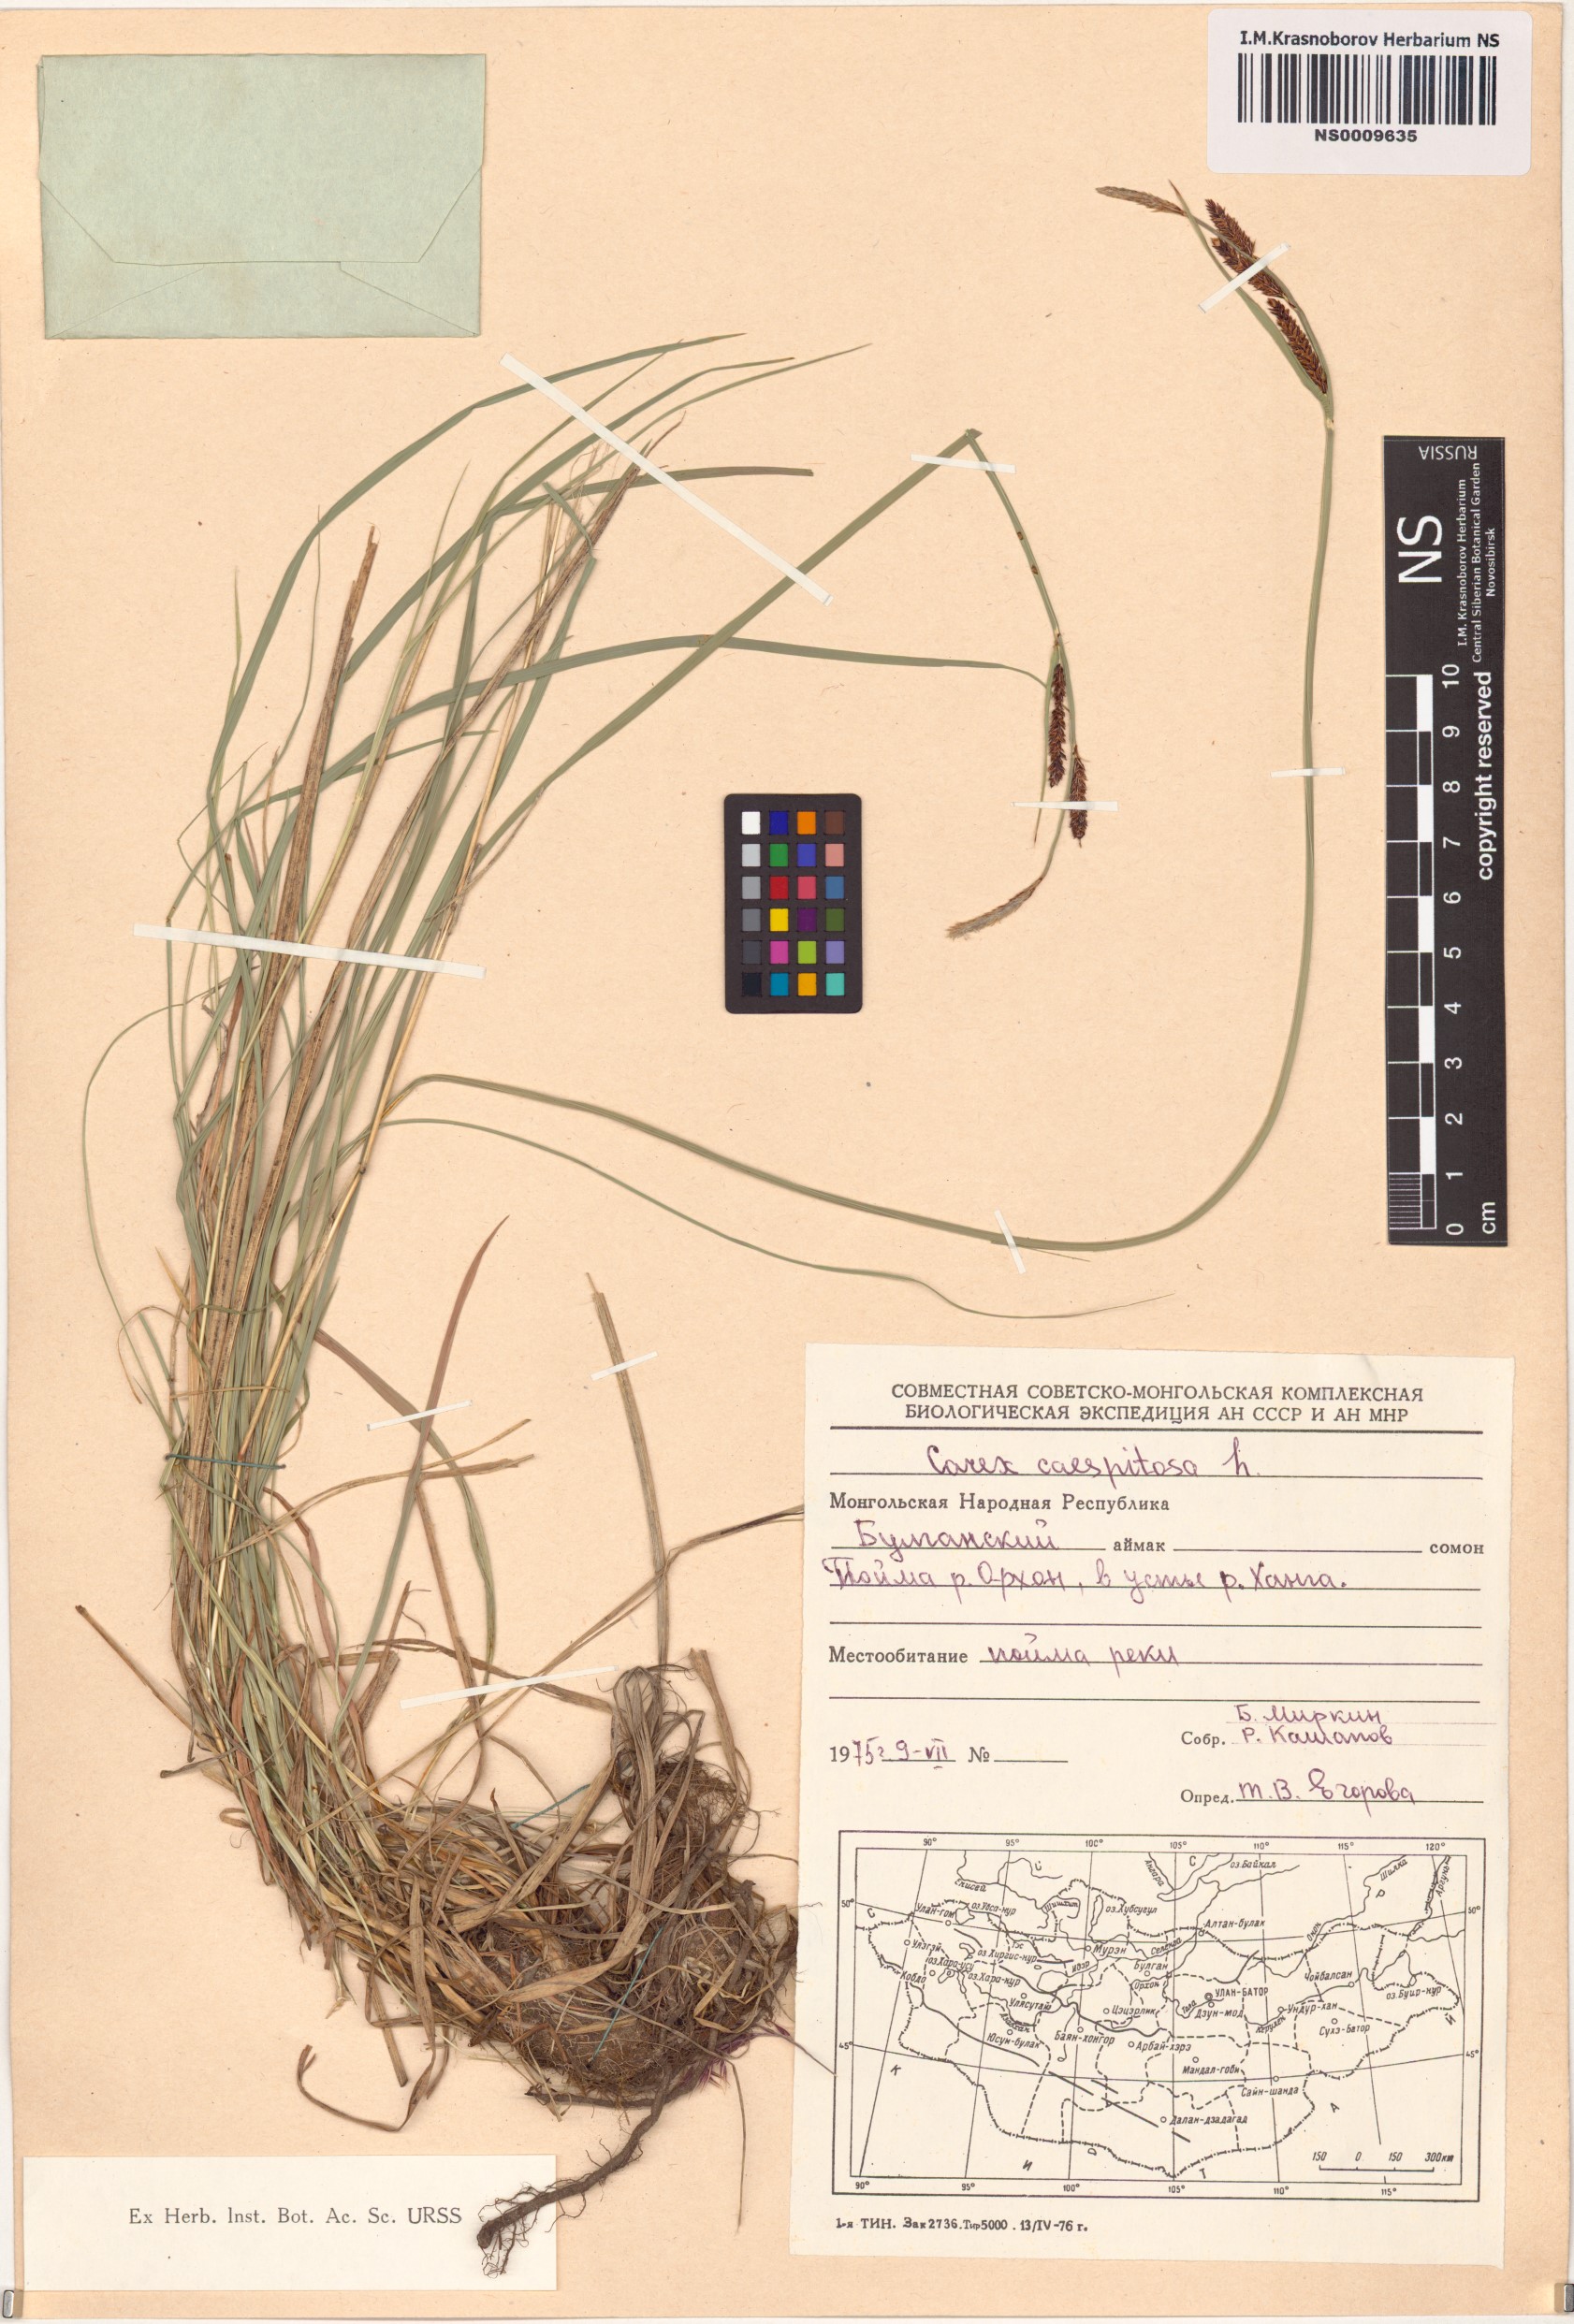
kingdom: Plantae
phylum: Tracheophyta
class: Liliopsida
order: Poales
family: Cyperaceae
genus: Carex
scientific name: Carex cespitosa
